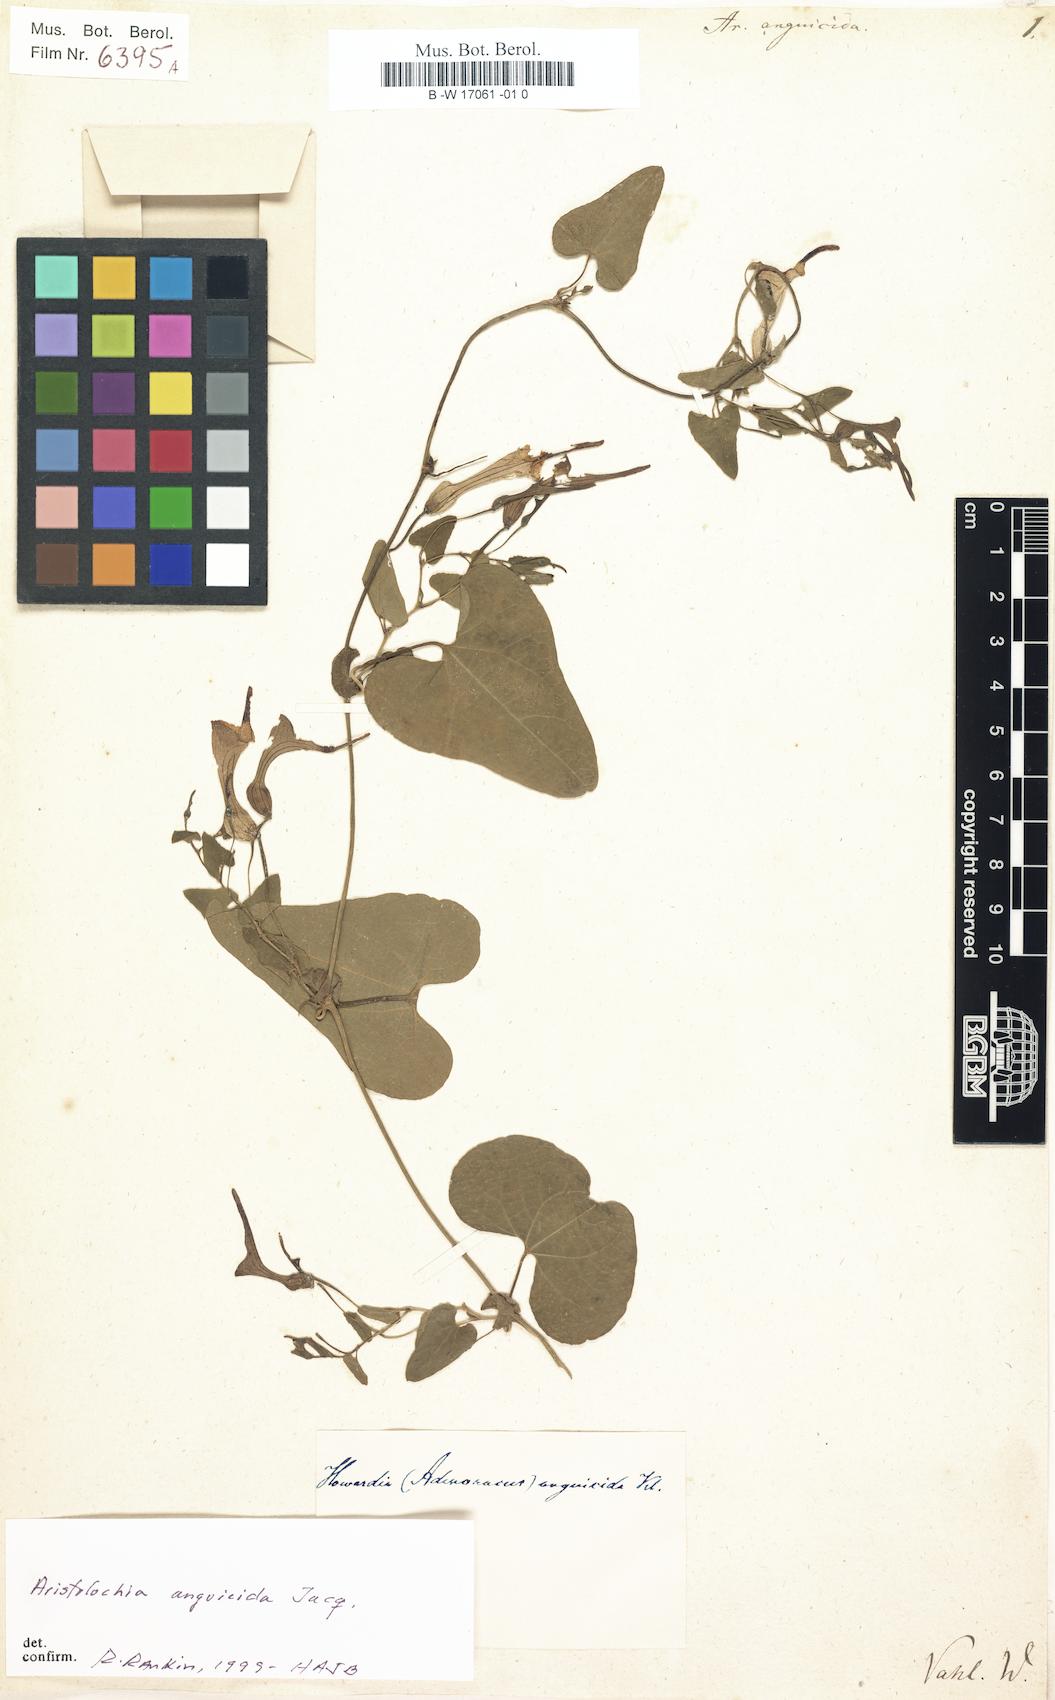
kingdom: Plantae
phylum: Tracheophyta
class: Magnoliopsida
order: Piperales
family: Aristolochiaceae
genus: Aristolochia
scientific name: Aristolochia anguicida
